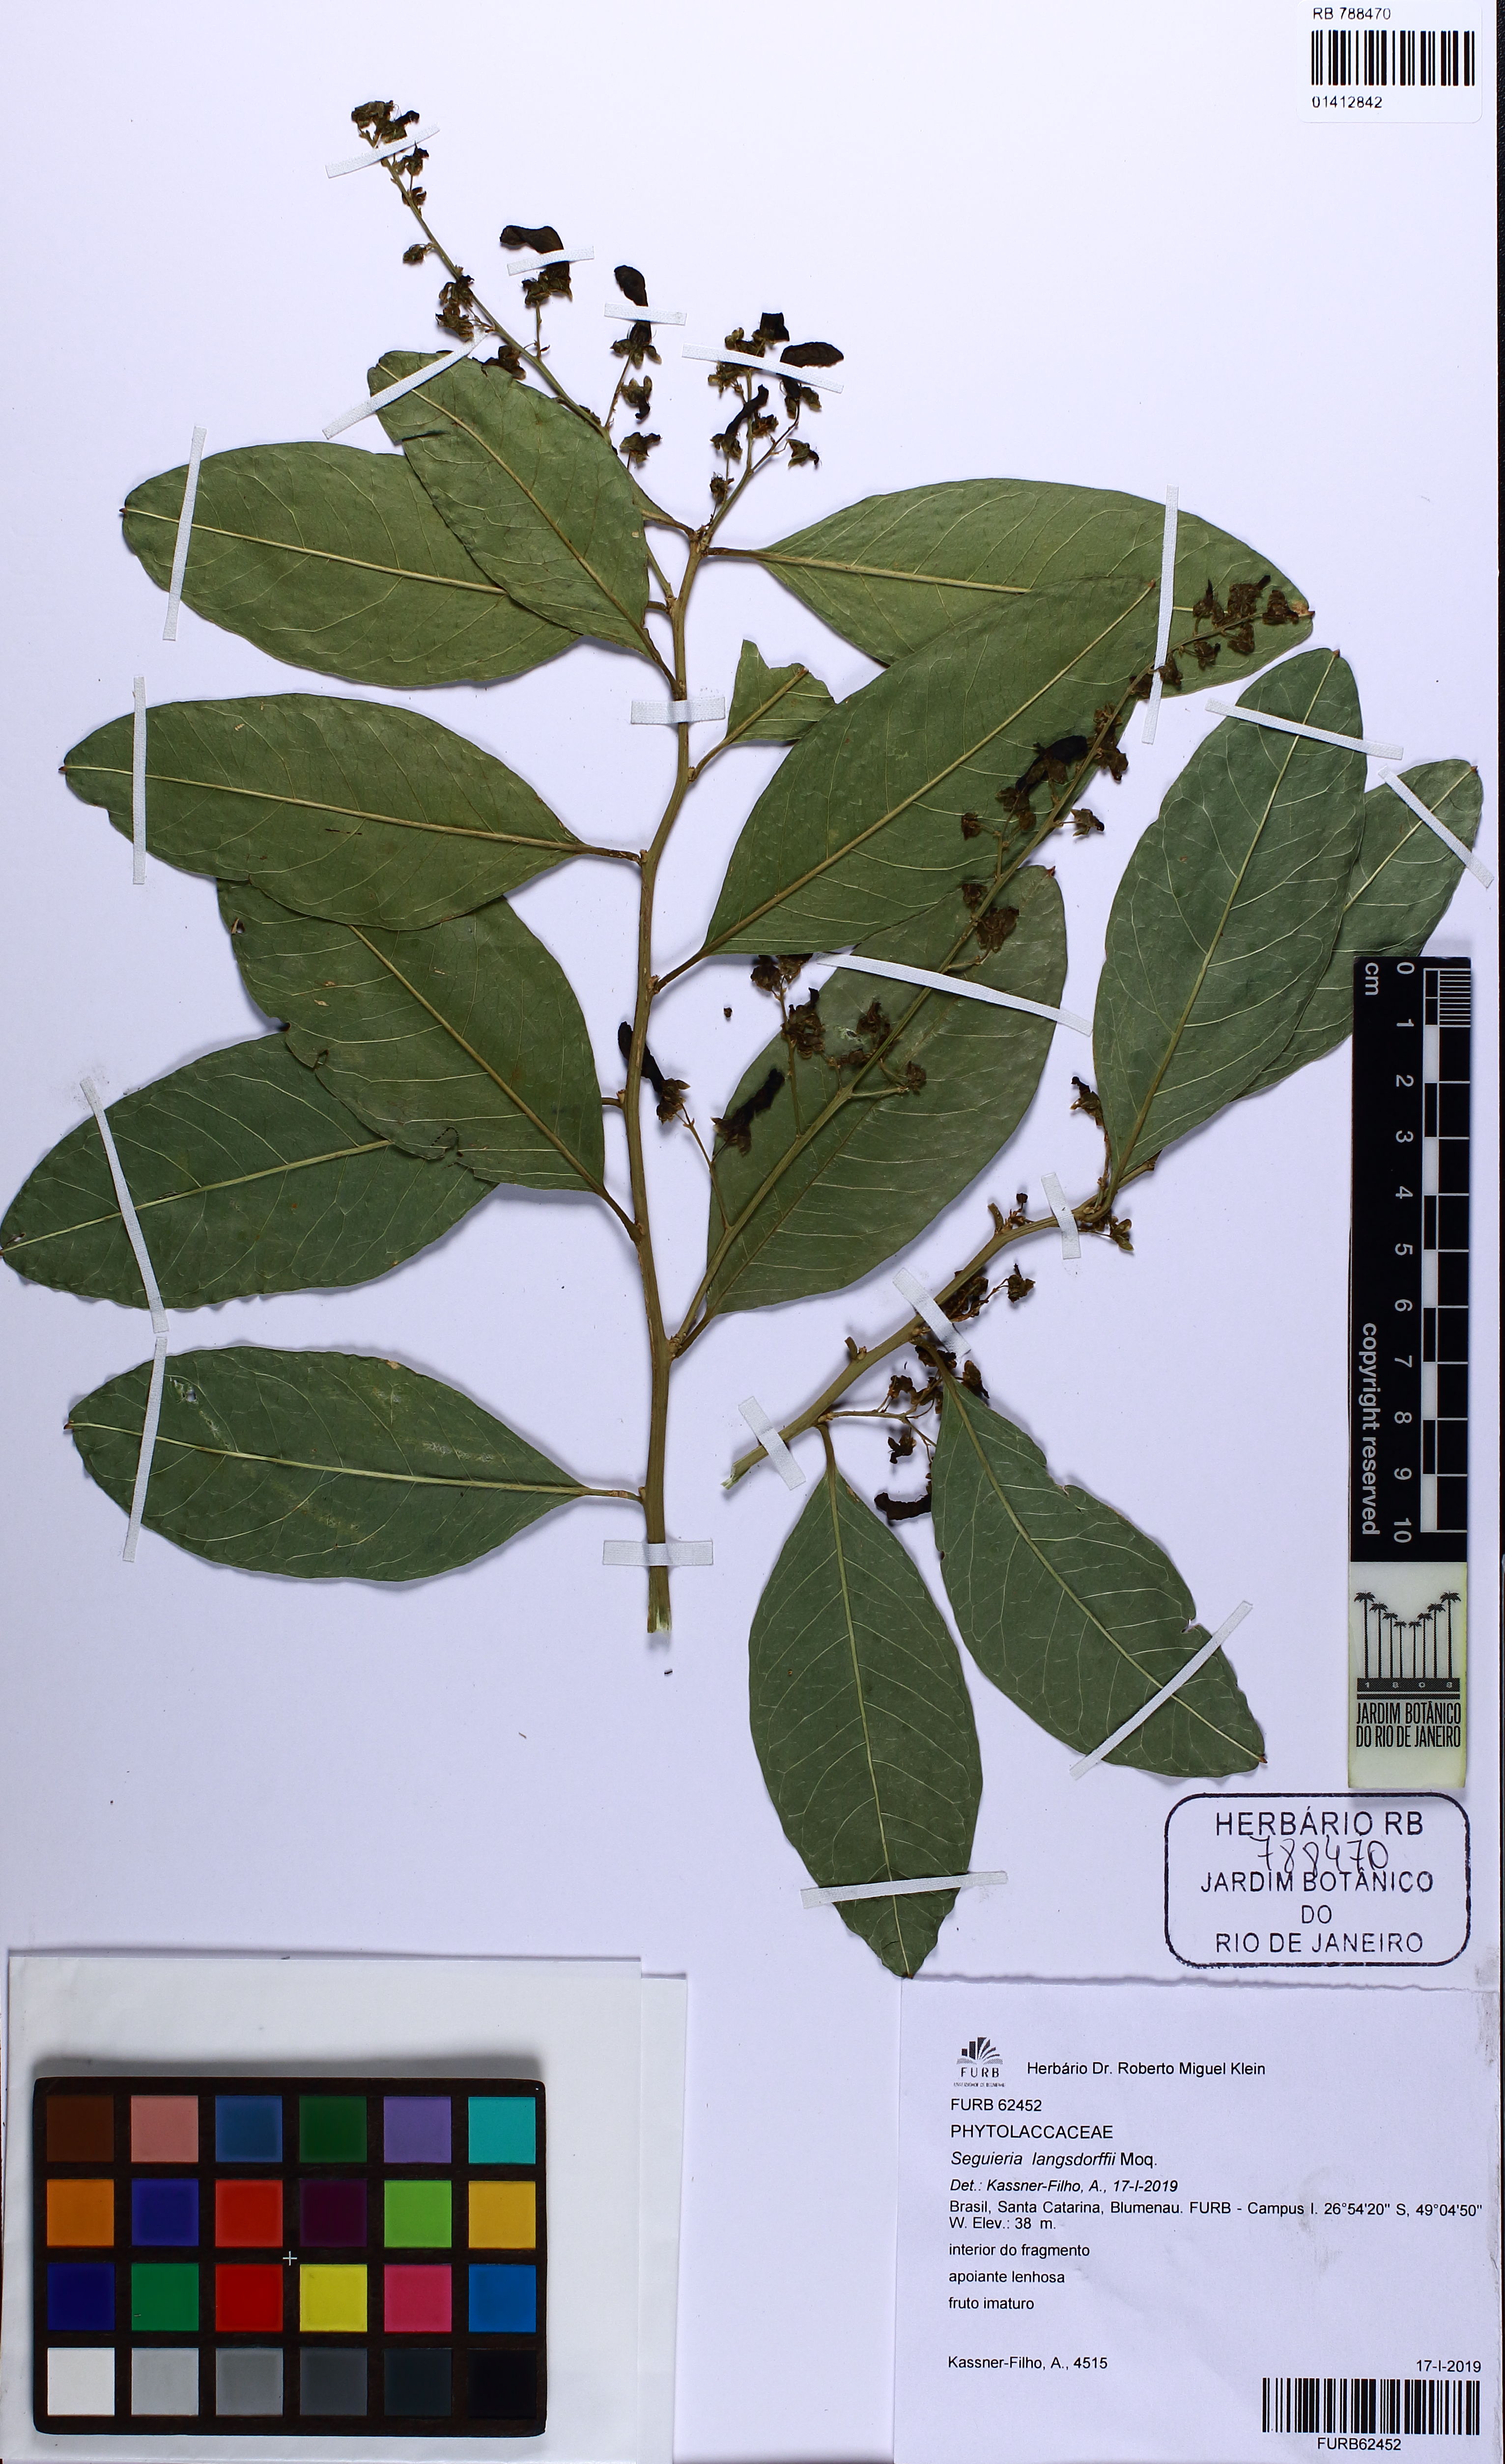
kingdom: Plantae
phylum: Tracheophyta
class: Magnoliopsida
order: Caryophyllales
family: Phytolaccaceae
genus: Seguieria
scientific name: Seguieria langsdorffii
